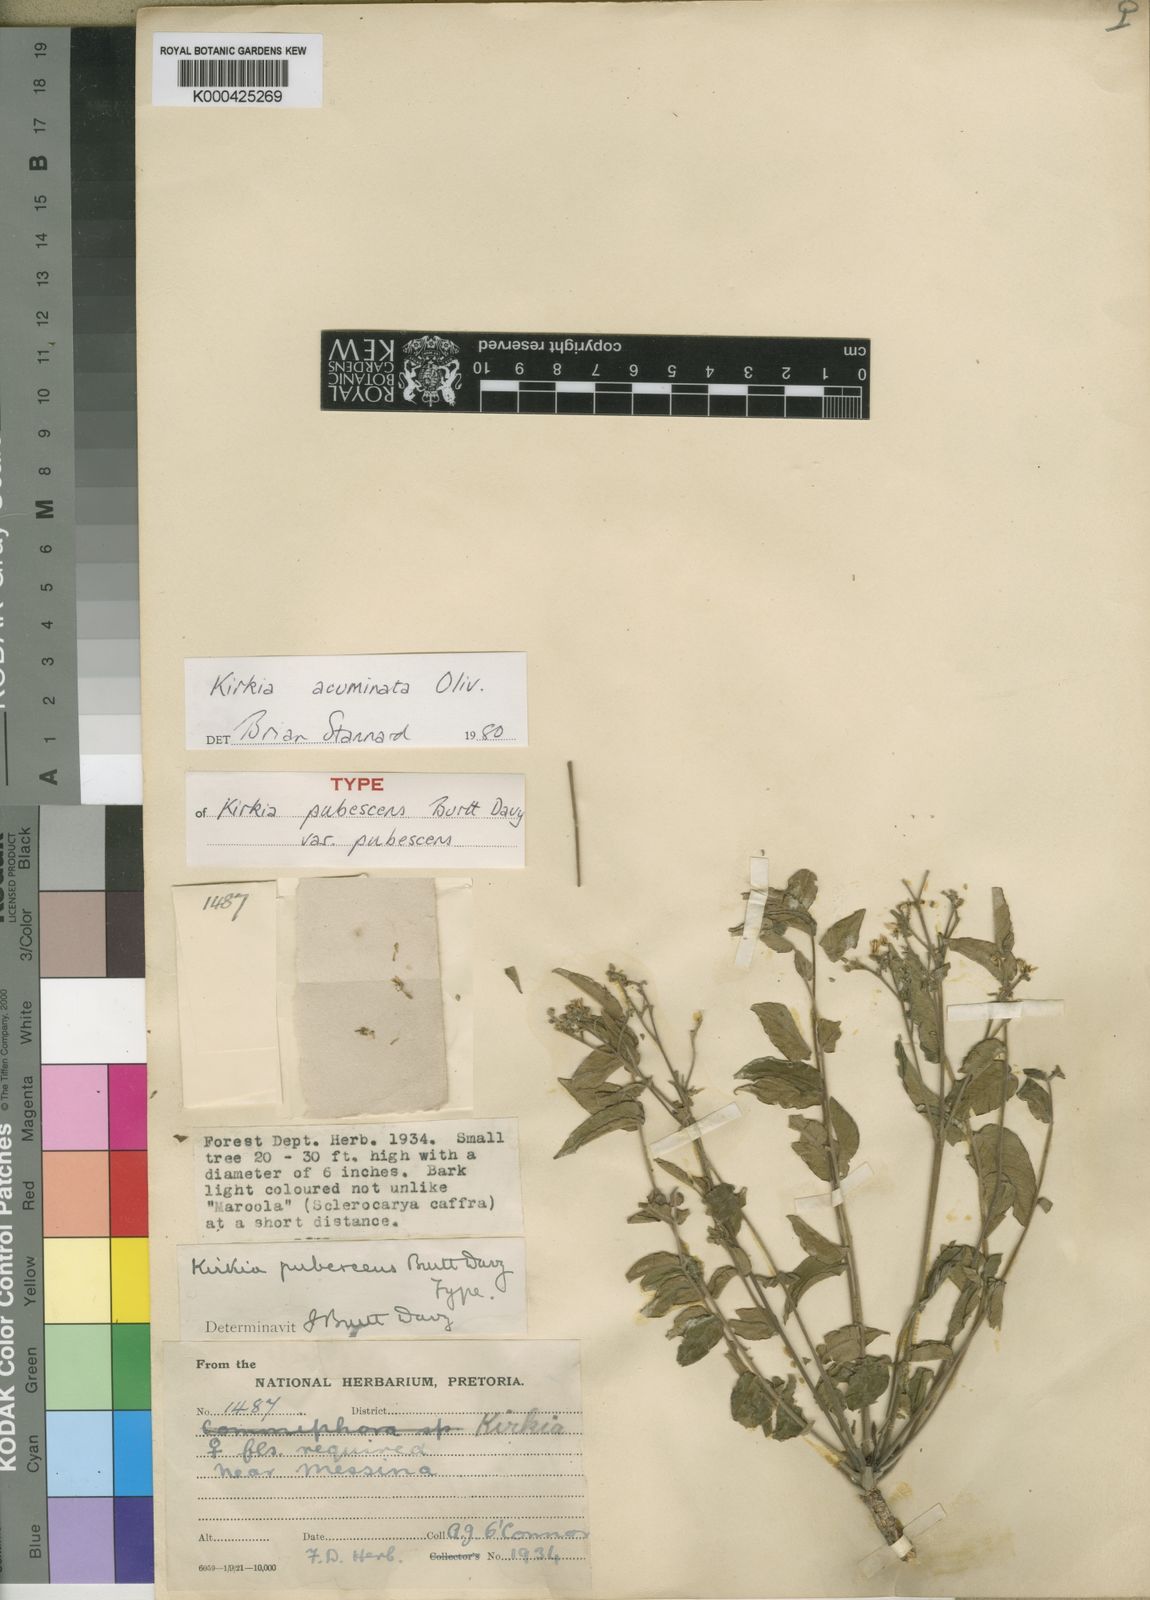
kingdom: Plantae
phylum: Tracheophyta
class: Magnoliopsida
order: Sapindales
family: Kirkiaceae
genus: Kirkia
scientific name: Kirkia acuminata
